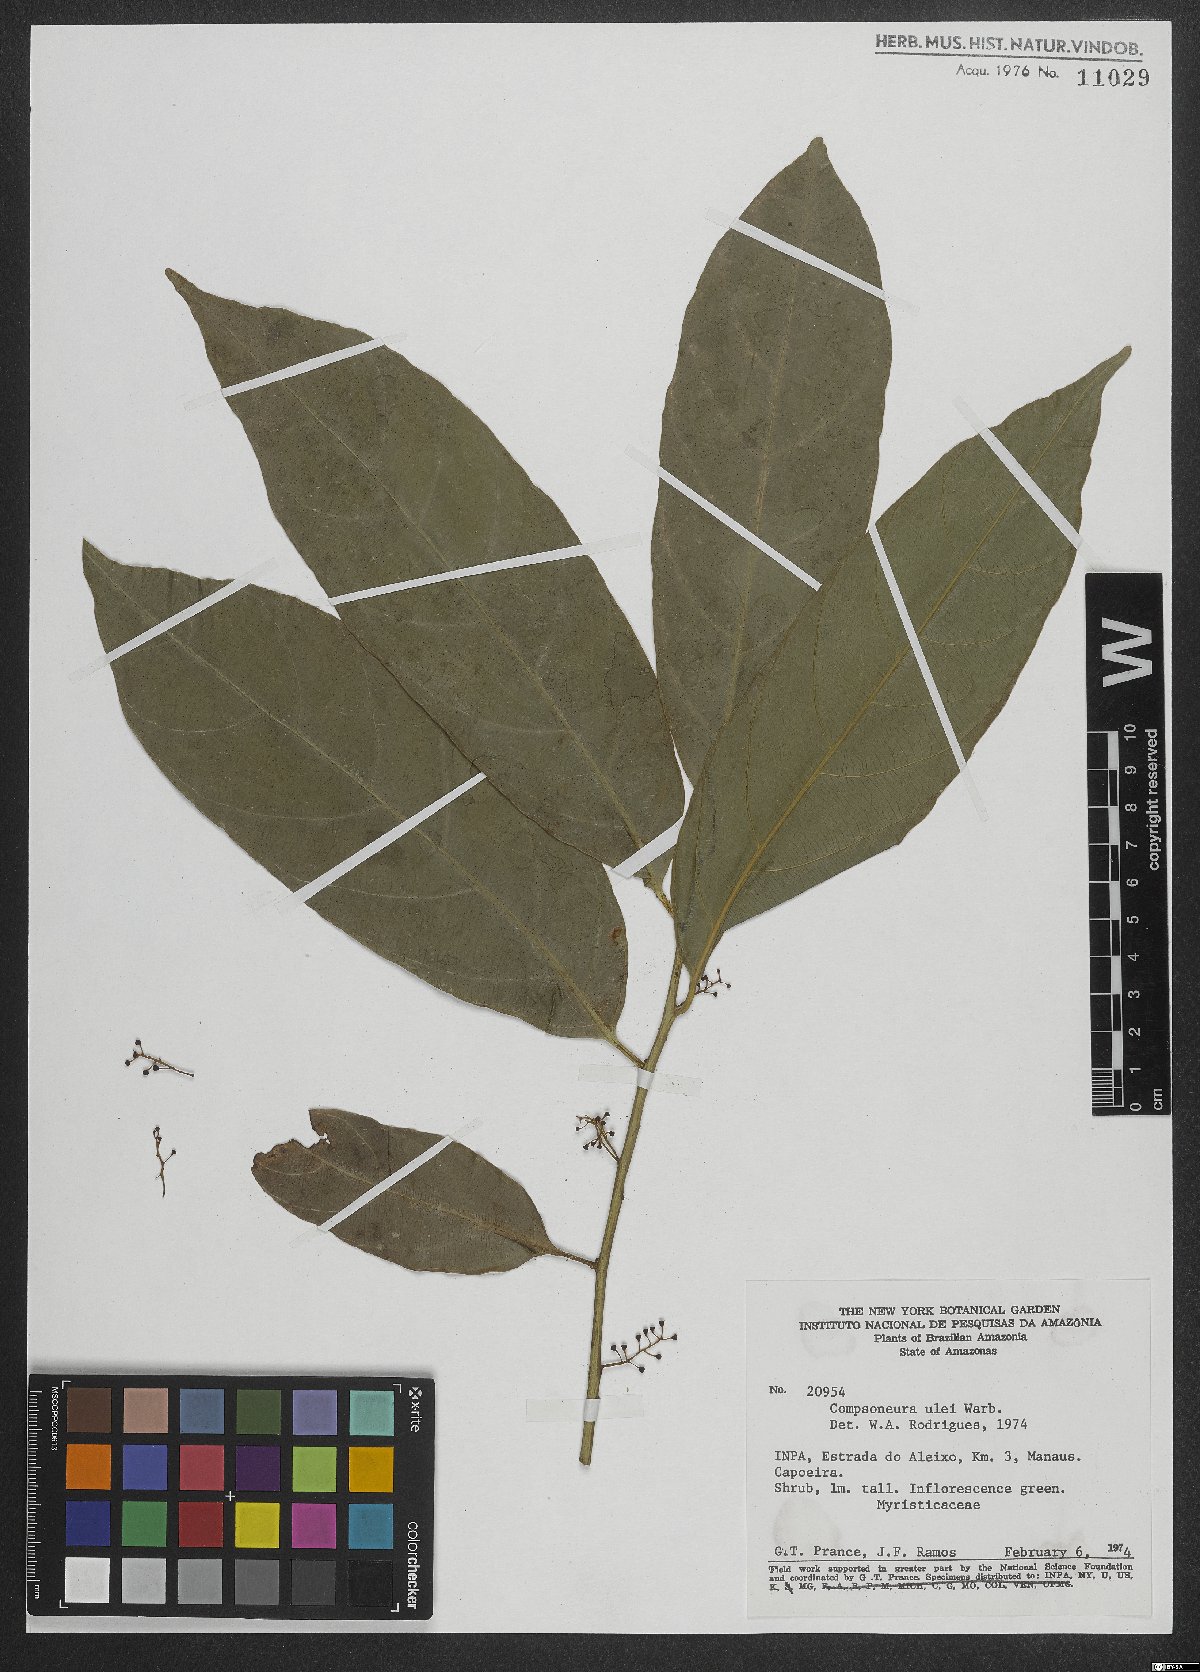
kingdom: Plantae
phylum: Tracheophyta
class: Magnoliopsida
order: Magnoliales
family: Myristicaceae
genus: Compsoneura
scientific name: Compsoneura ulei
